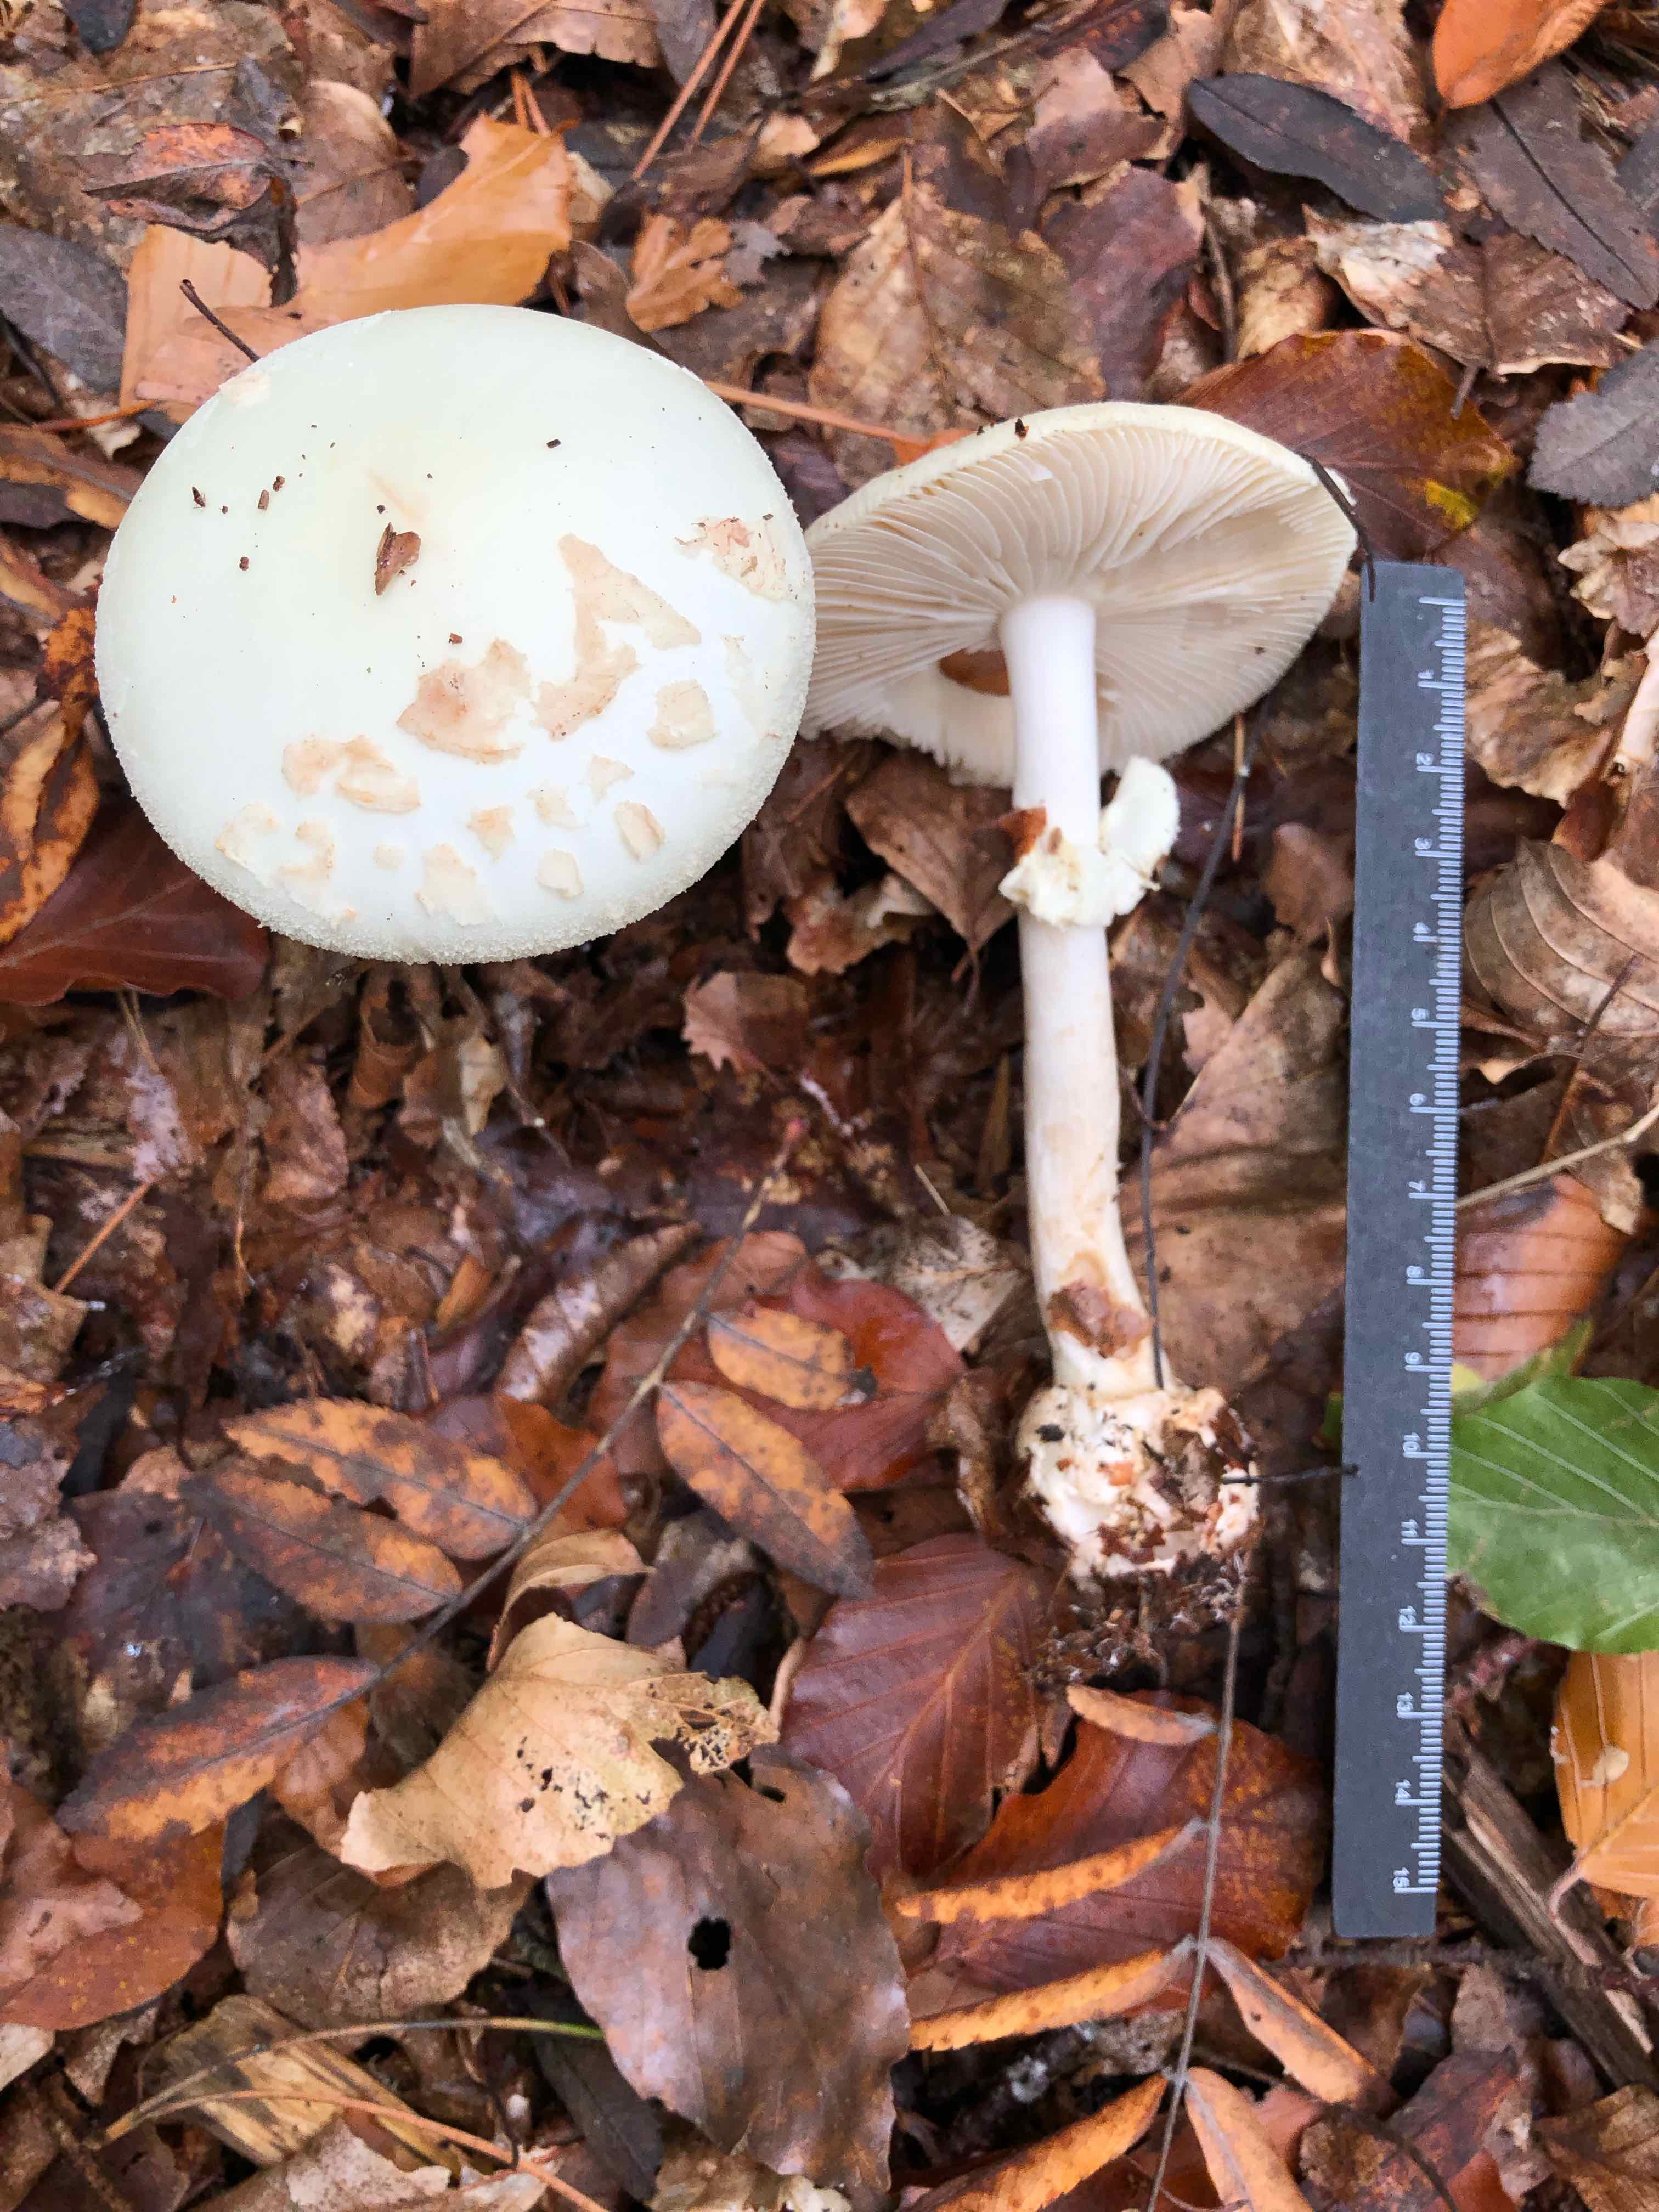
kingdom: Fungi
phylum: Basidiomycota
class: Agaricomycetes
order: Agaricales
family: Amanitaceae
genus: Amanita
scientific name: Amanita citrina
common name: kugleknoldet fluesvamp
